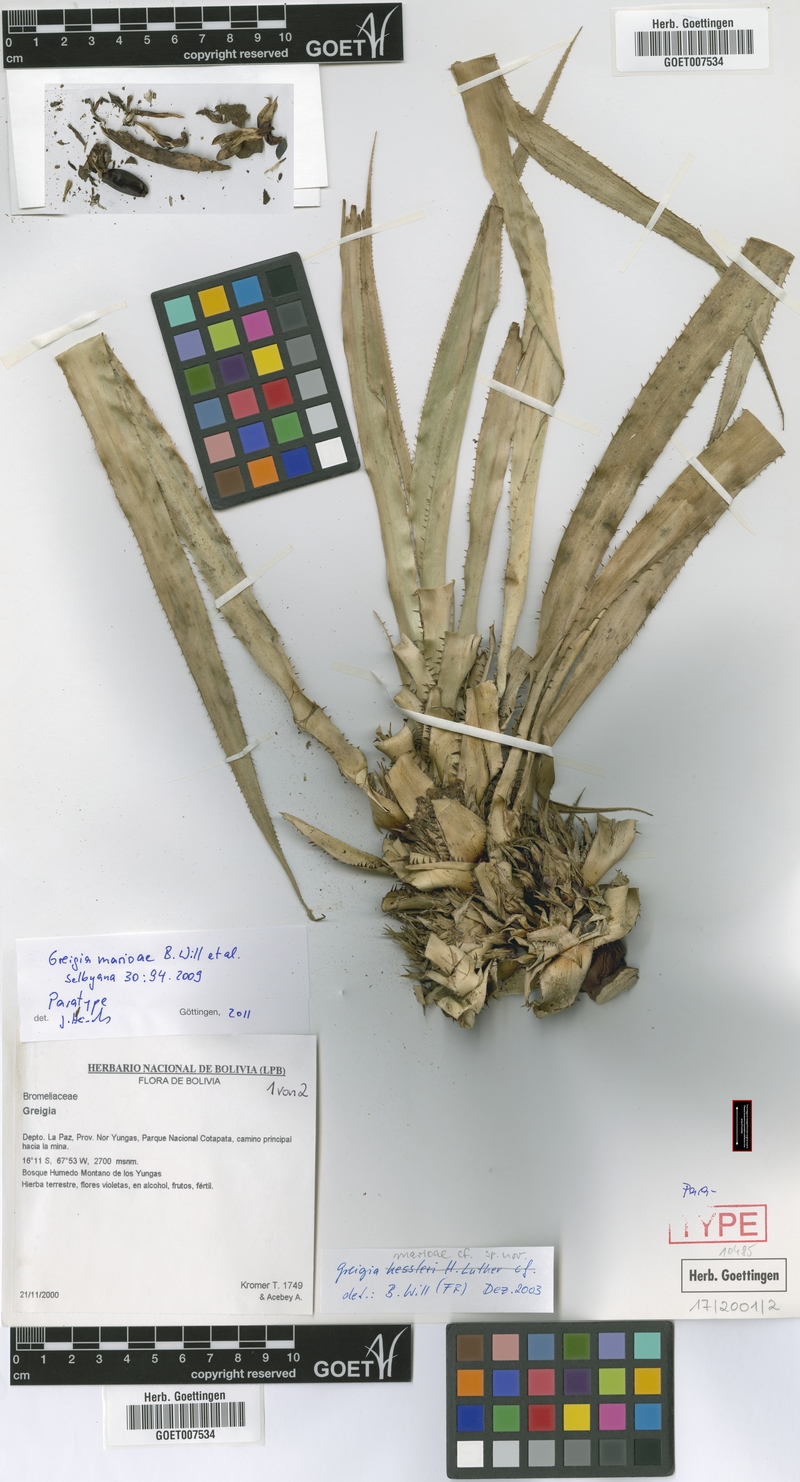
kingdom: Plantae
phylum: Tracheophyta
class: Liliopsida
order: Poales
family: Bromeliaceae
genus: Greigia
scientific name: Greigia marioi
